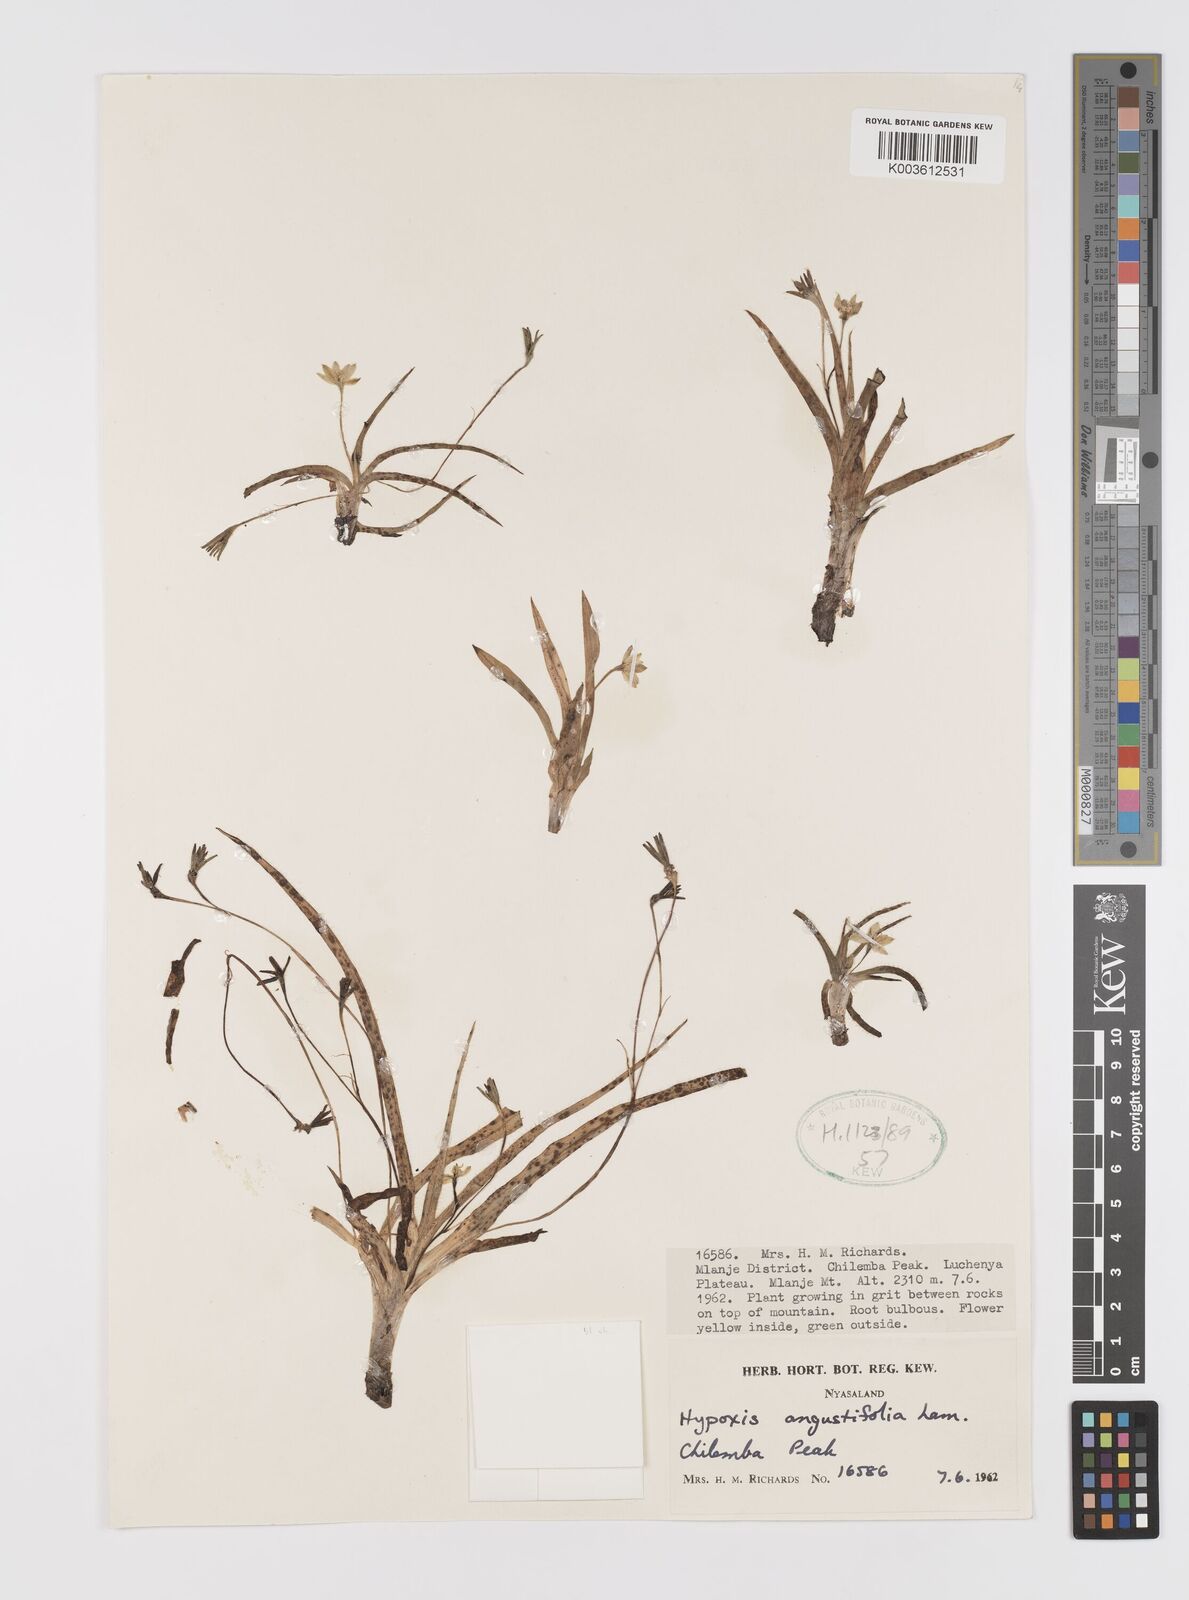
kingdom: Plantae
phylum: Tracheophyta
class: Liliopsida
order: Asparagales
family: Hypoxidaceae
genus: Hypoxis
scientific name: Hypoxis parvifolia
